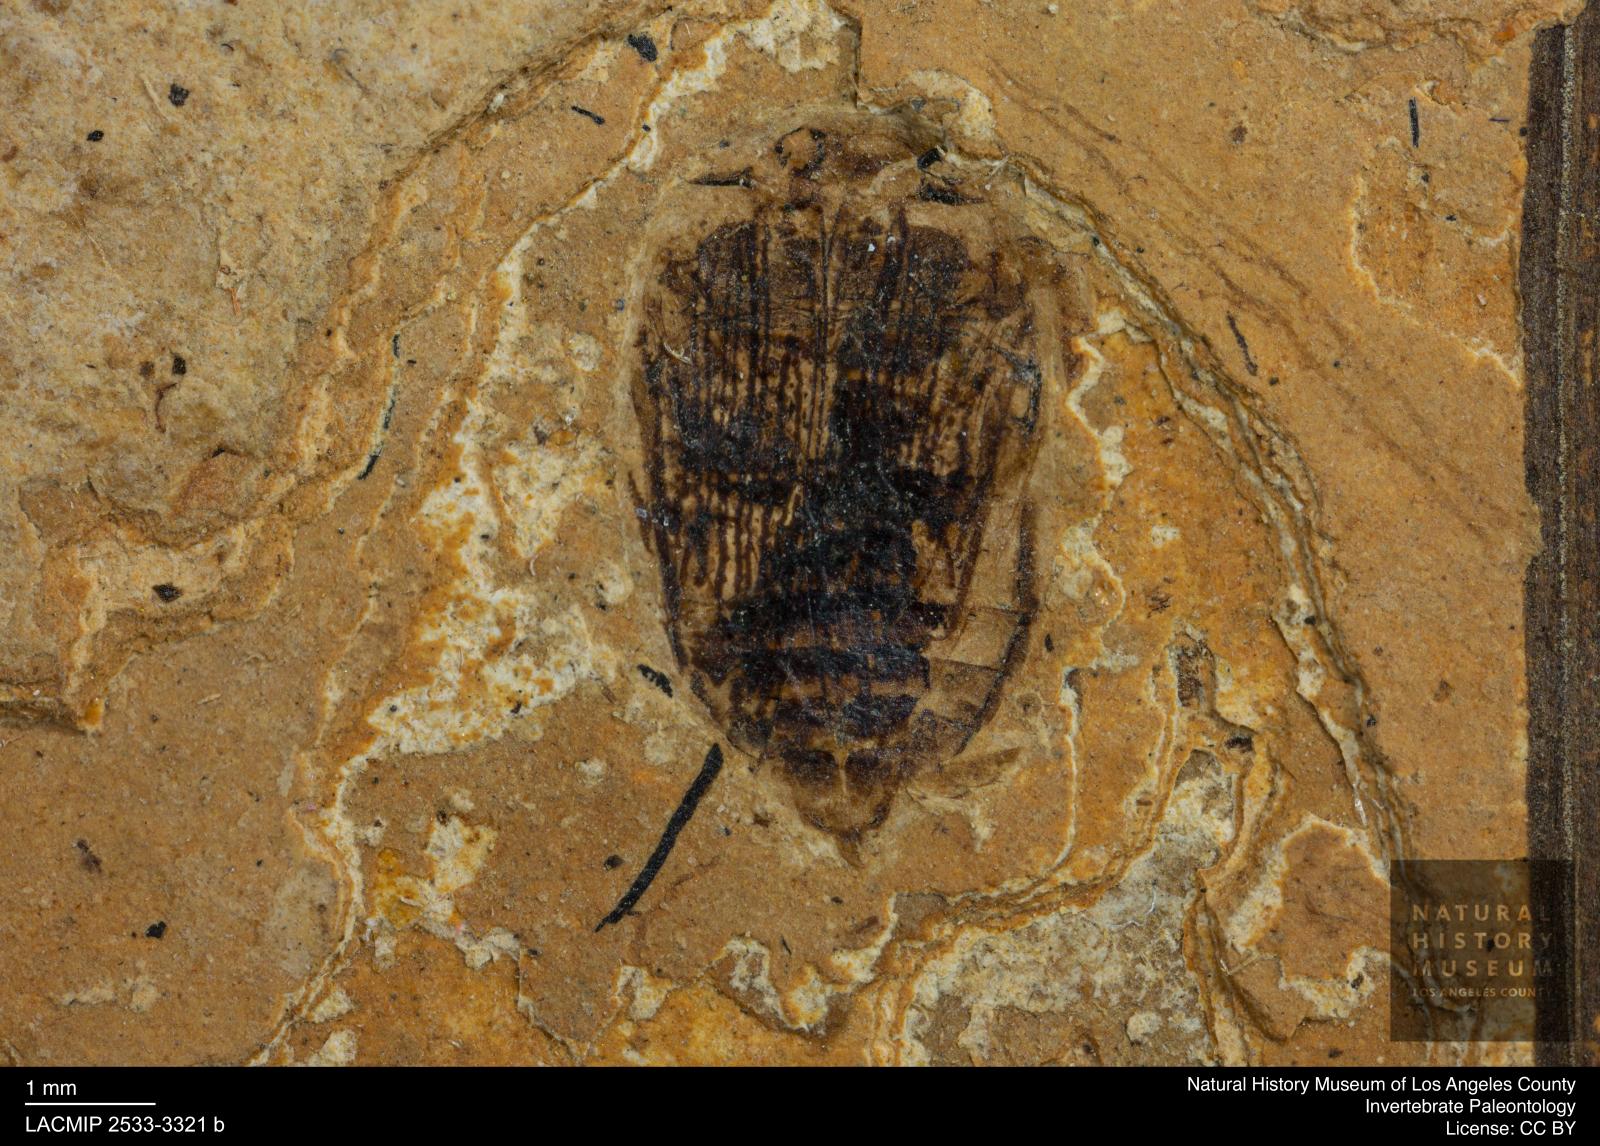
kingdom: Animalia
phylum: Arthropoda
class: Insecta
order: Coleoptera
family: Dytiscidae
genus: Laccophilus
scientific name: Laccophilus Palaeogyrinus strigatus
